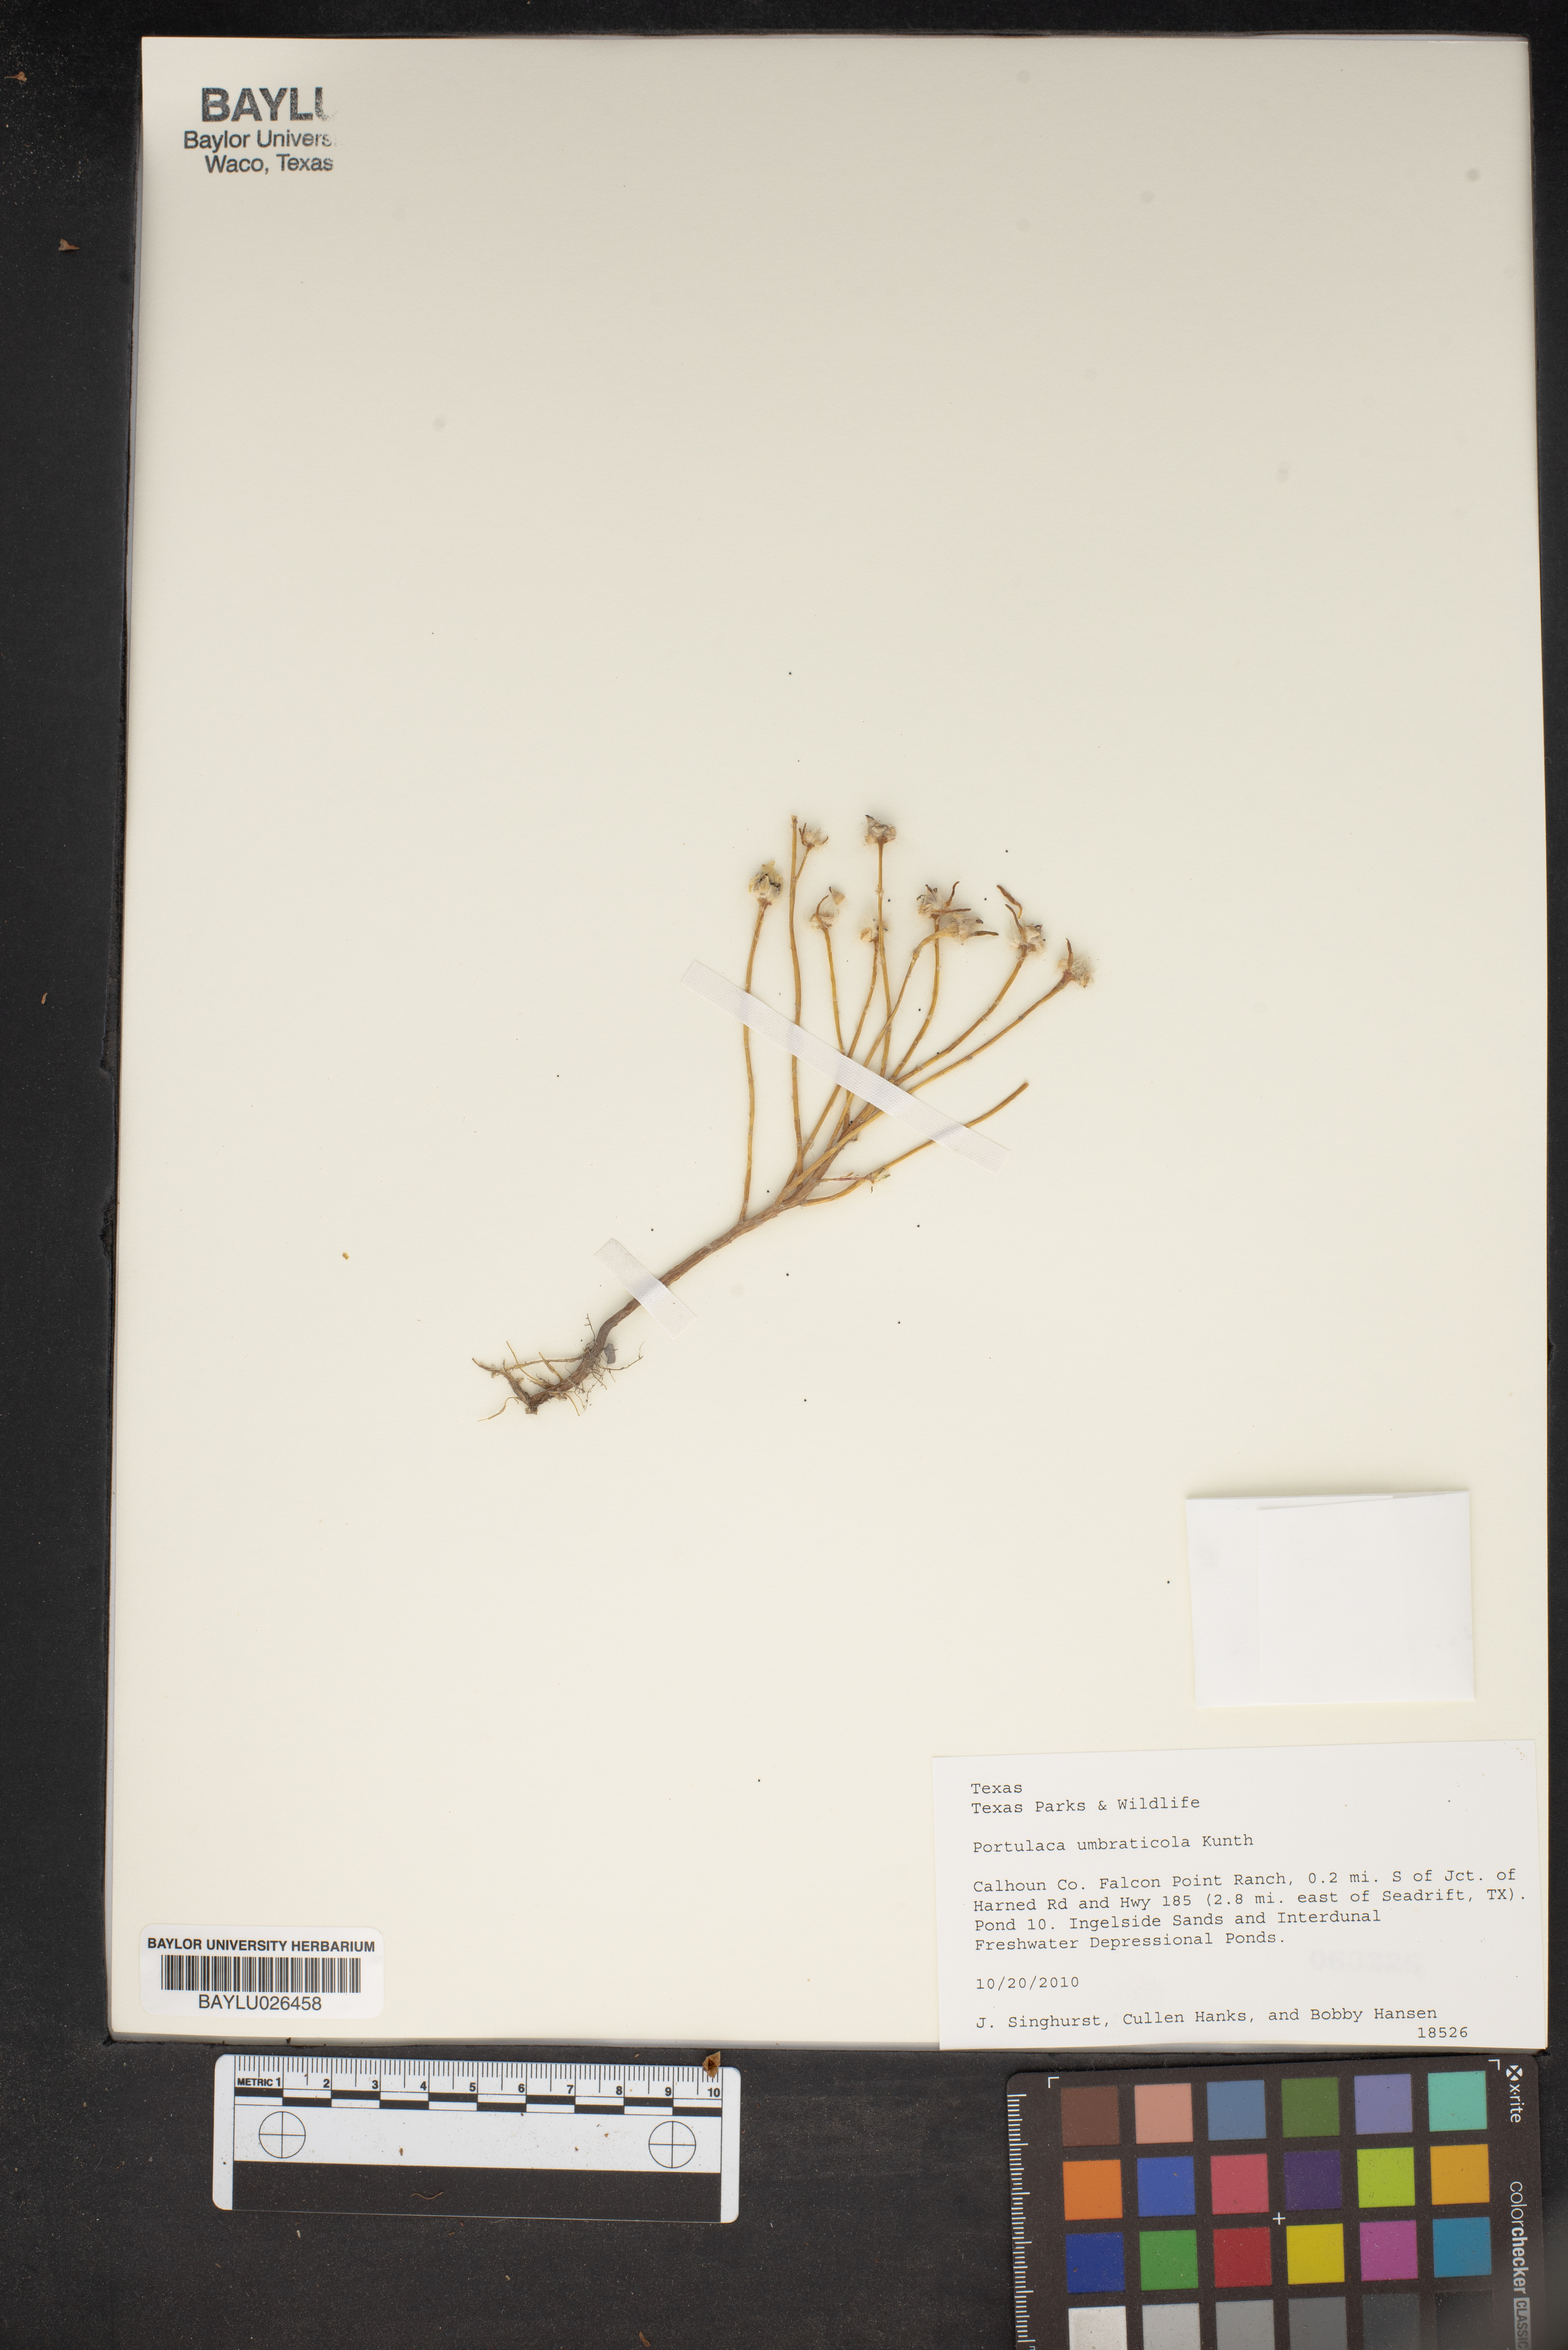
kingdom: Plantae
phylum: Tracheophyta
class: Magnoliopsida
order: Caryophyllales
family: Portulacaceae
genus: Portulaca
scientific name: Portulaca umbraticola
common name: Wingpod purslane
